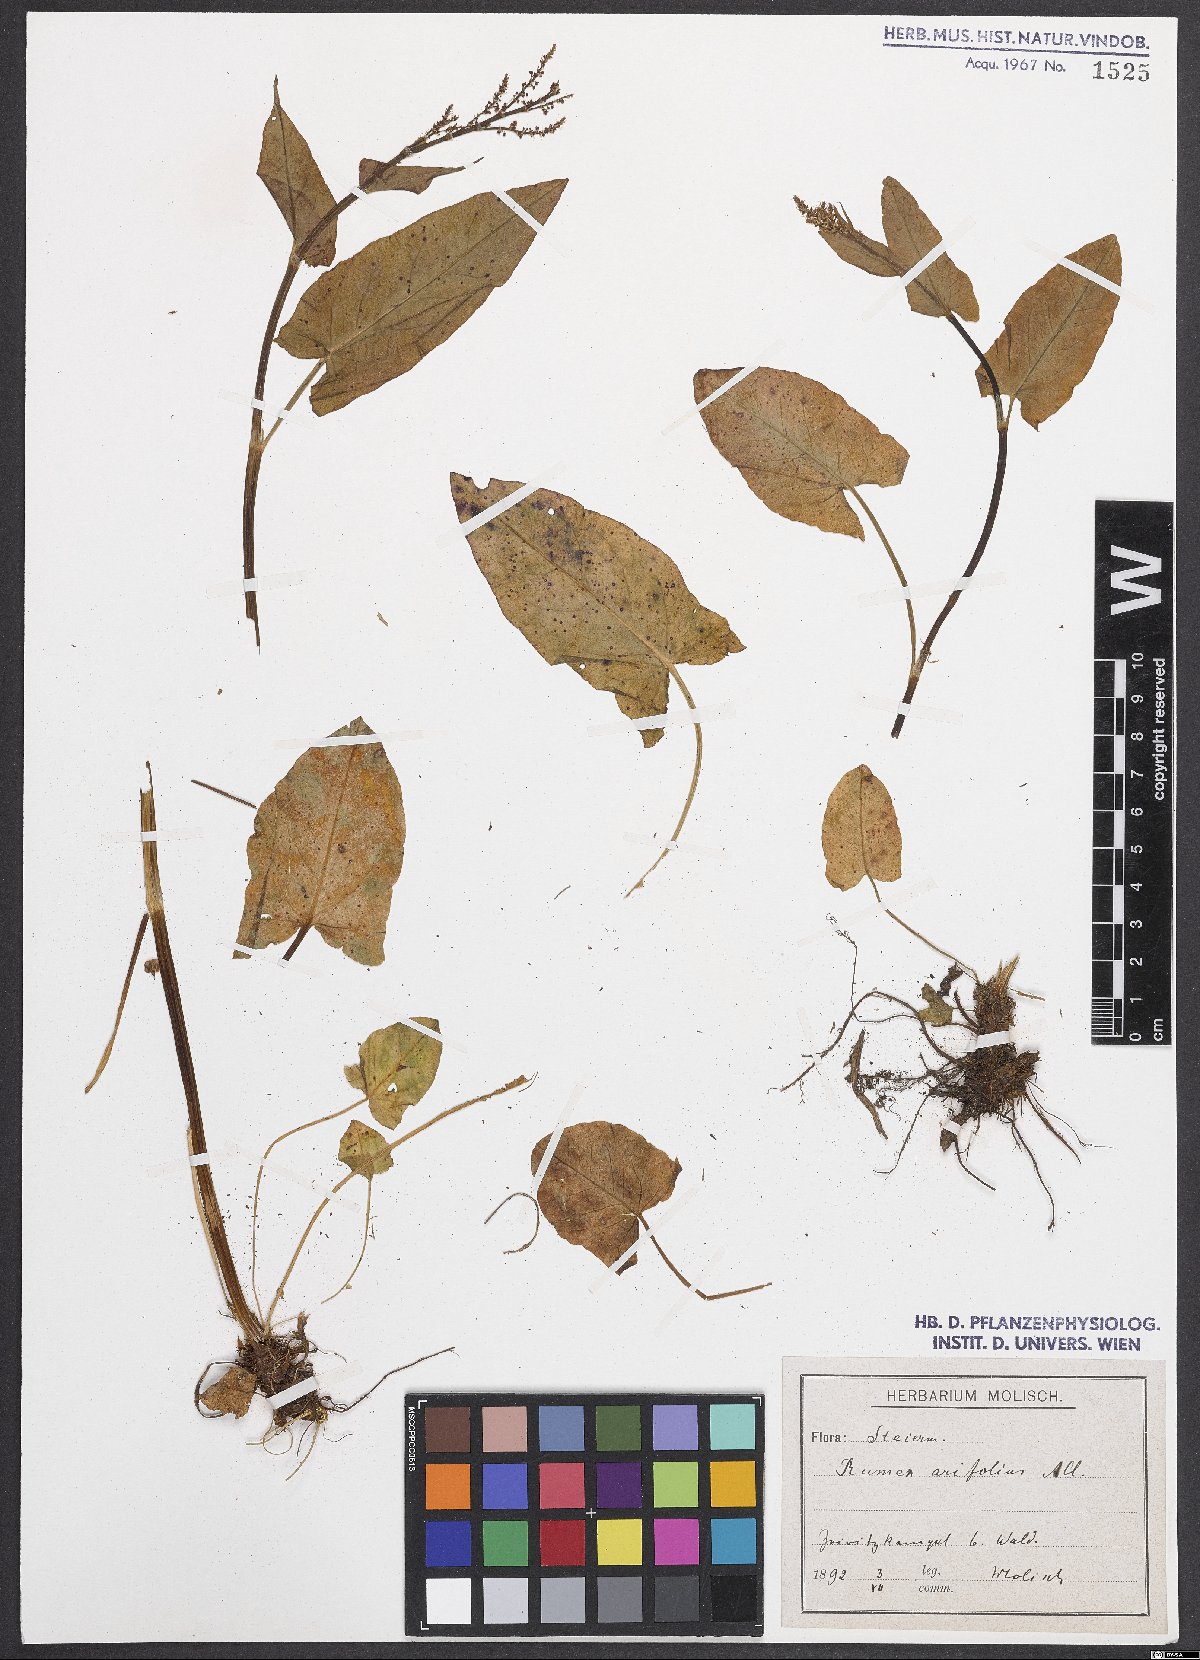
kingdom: Plantae
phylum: Tracheophyta
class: Magnoliopsida
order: Caryophyllales
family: Polygonaceae
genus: Rumex
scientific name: Rumex arifolius
